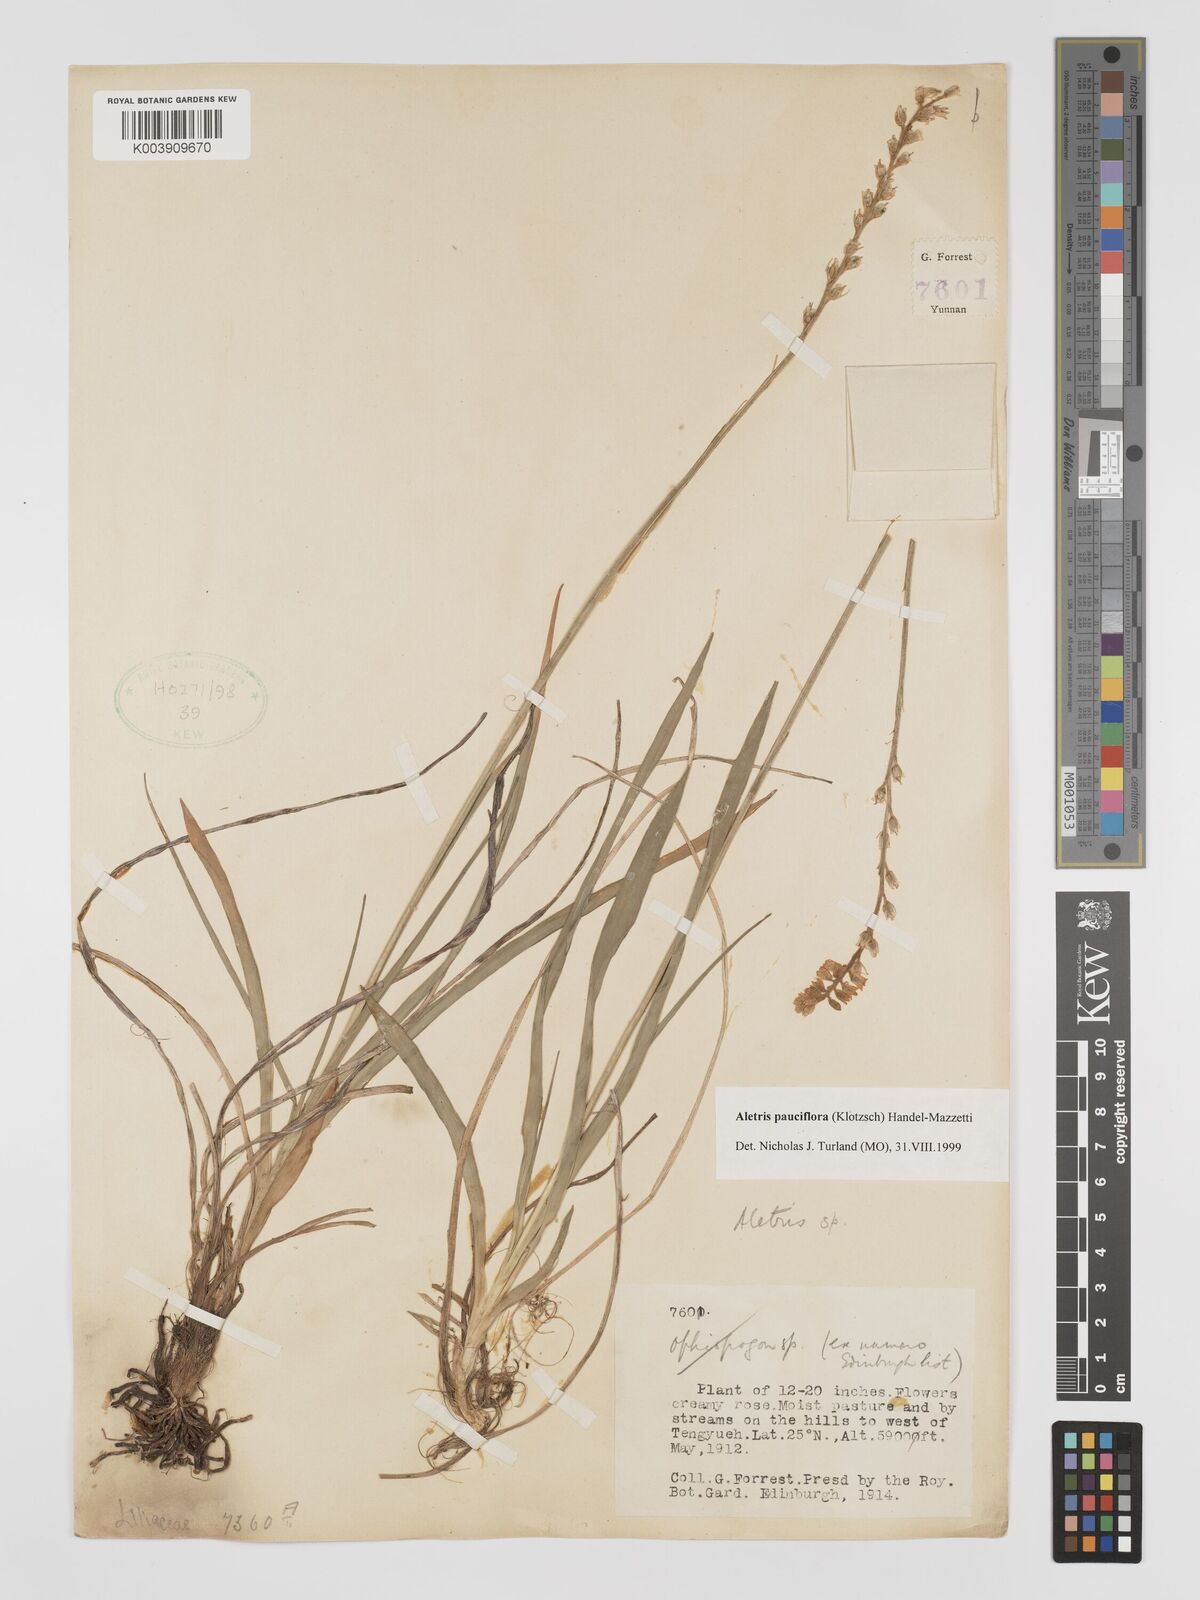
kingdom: Plantae
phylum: Tracheophyta
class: Liliopsida
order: Dioscoreales
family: Nartheciaceae
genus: Aletris
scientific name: Aletris pauciflora
